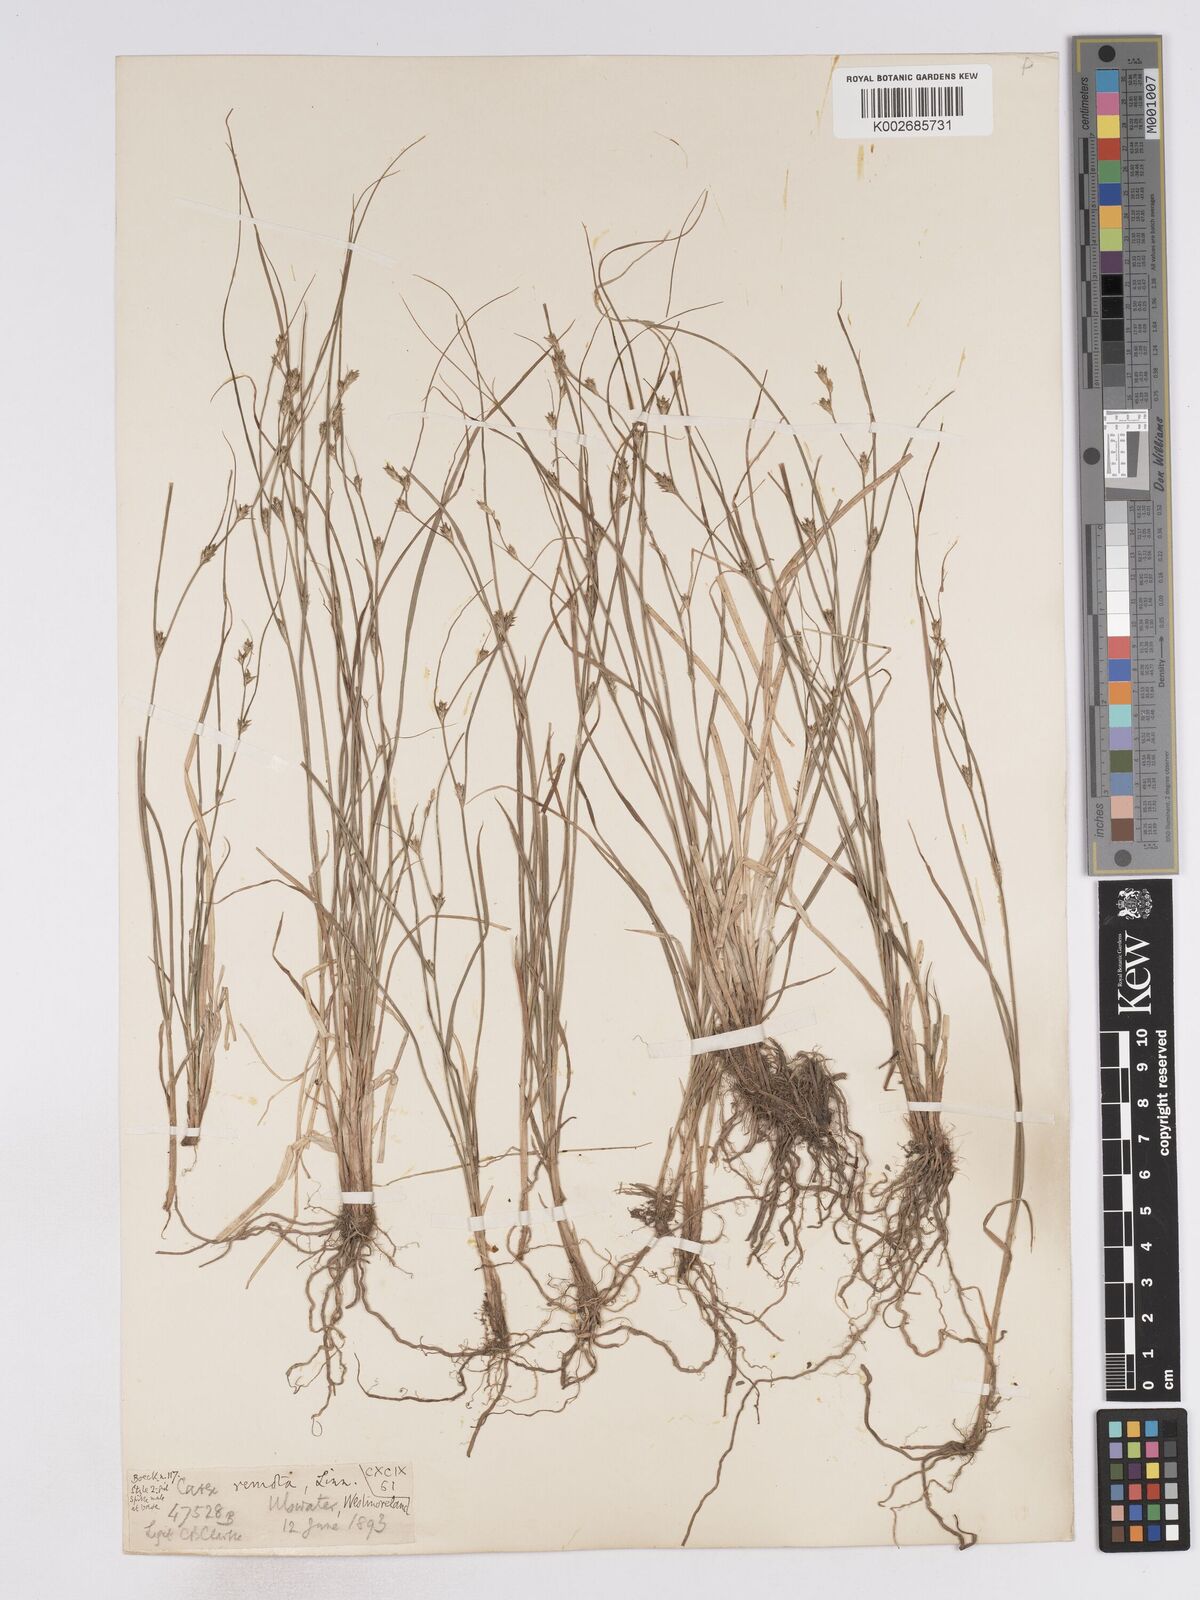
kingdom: Plantae
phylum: Tracheophyta
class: Liliopsida
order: Poales
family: Cyperaceae
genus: Carex
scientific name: Carex remota
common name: Remote sedge
